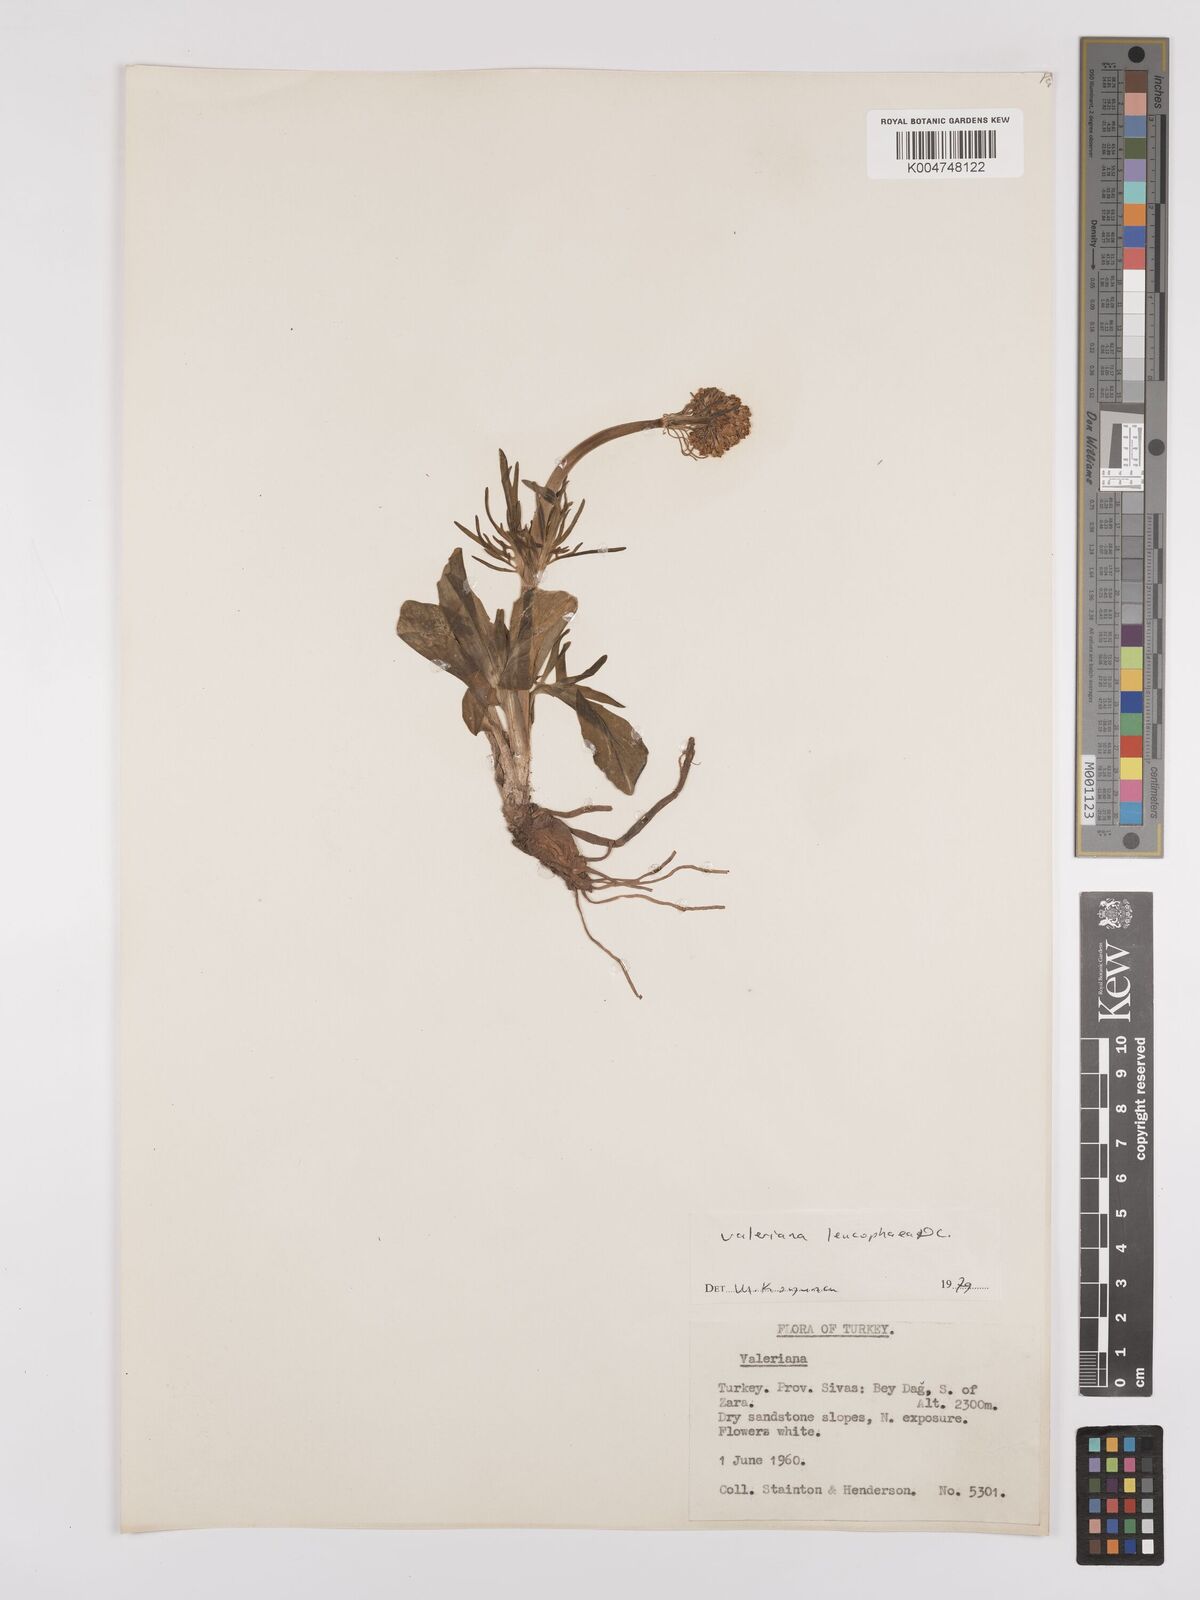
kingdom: Plantae
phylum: Tracheophyta
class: Magnoliopsida
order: Dipsacales
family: Caprifoliaceae
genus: Valeriana
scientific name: Valeriana
